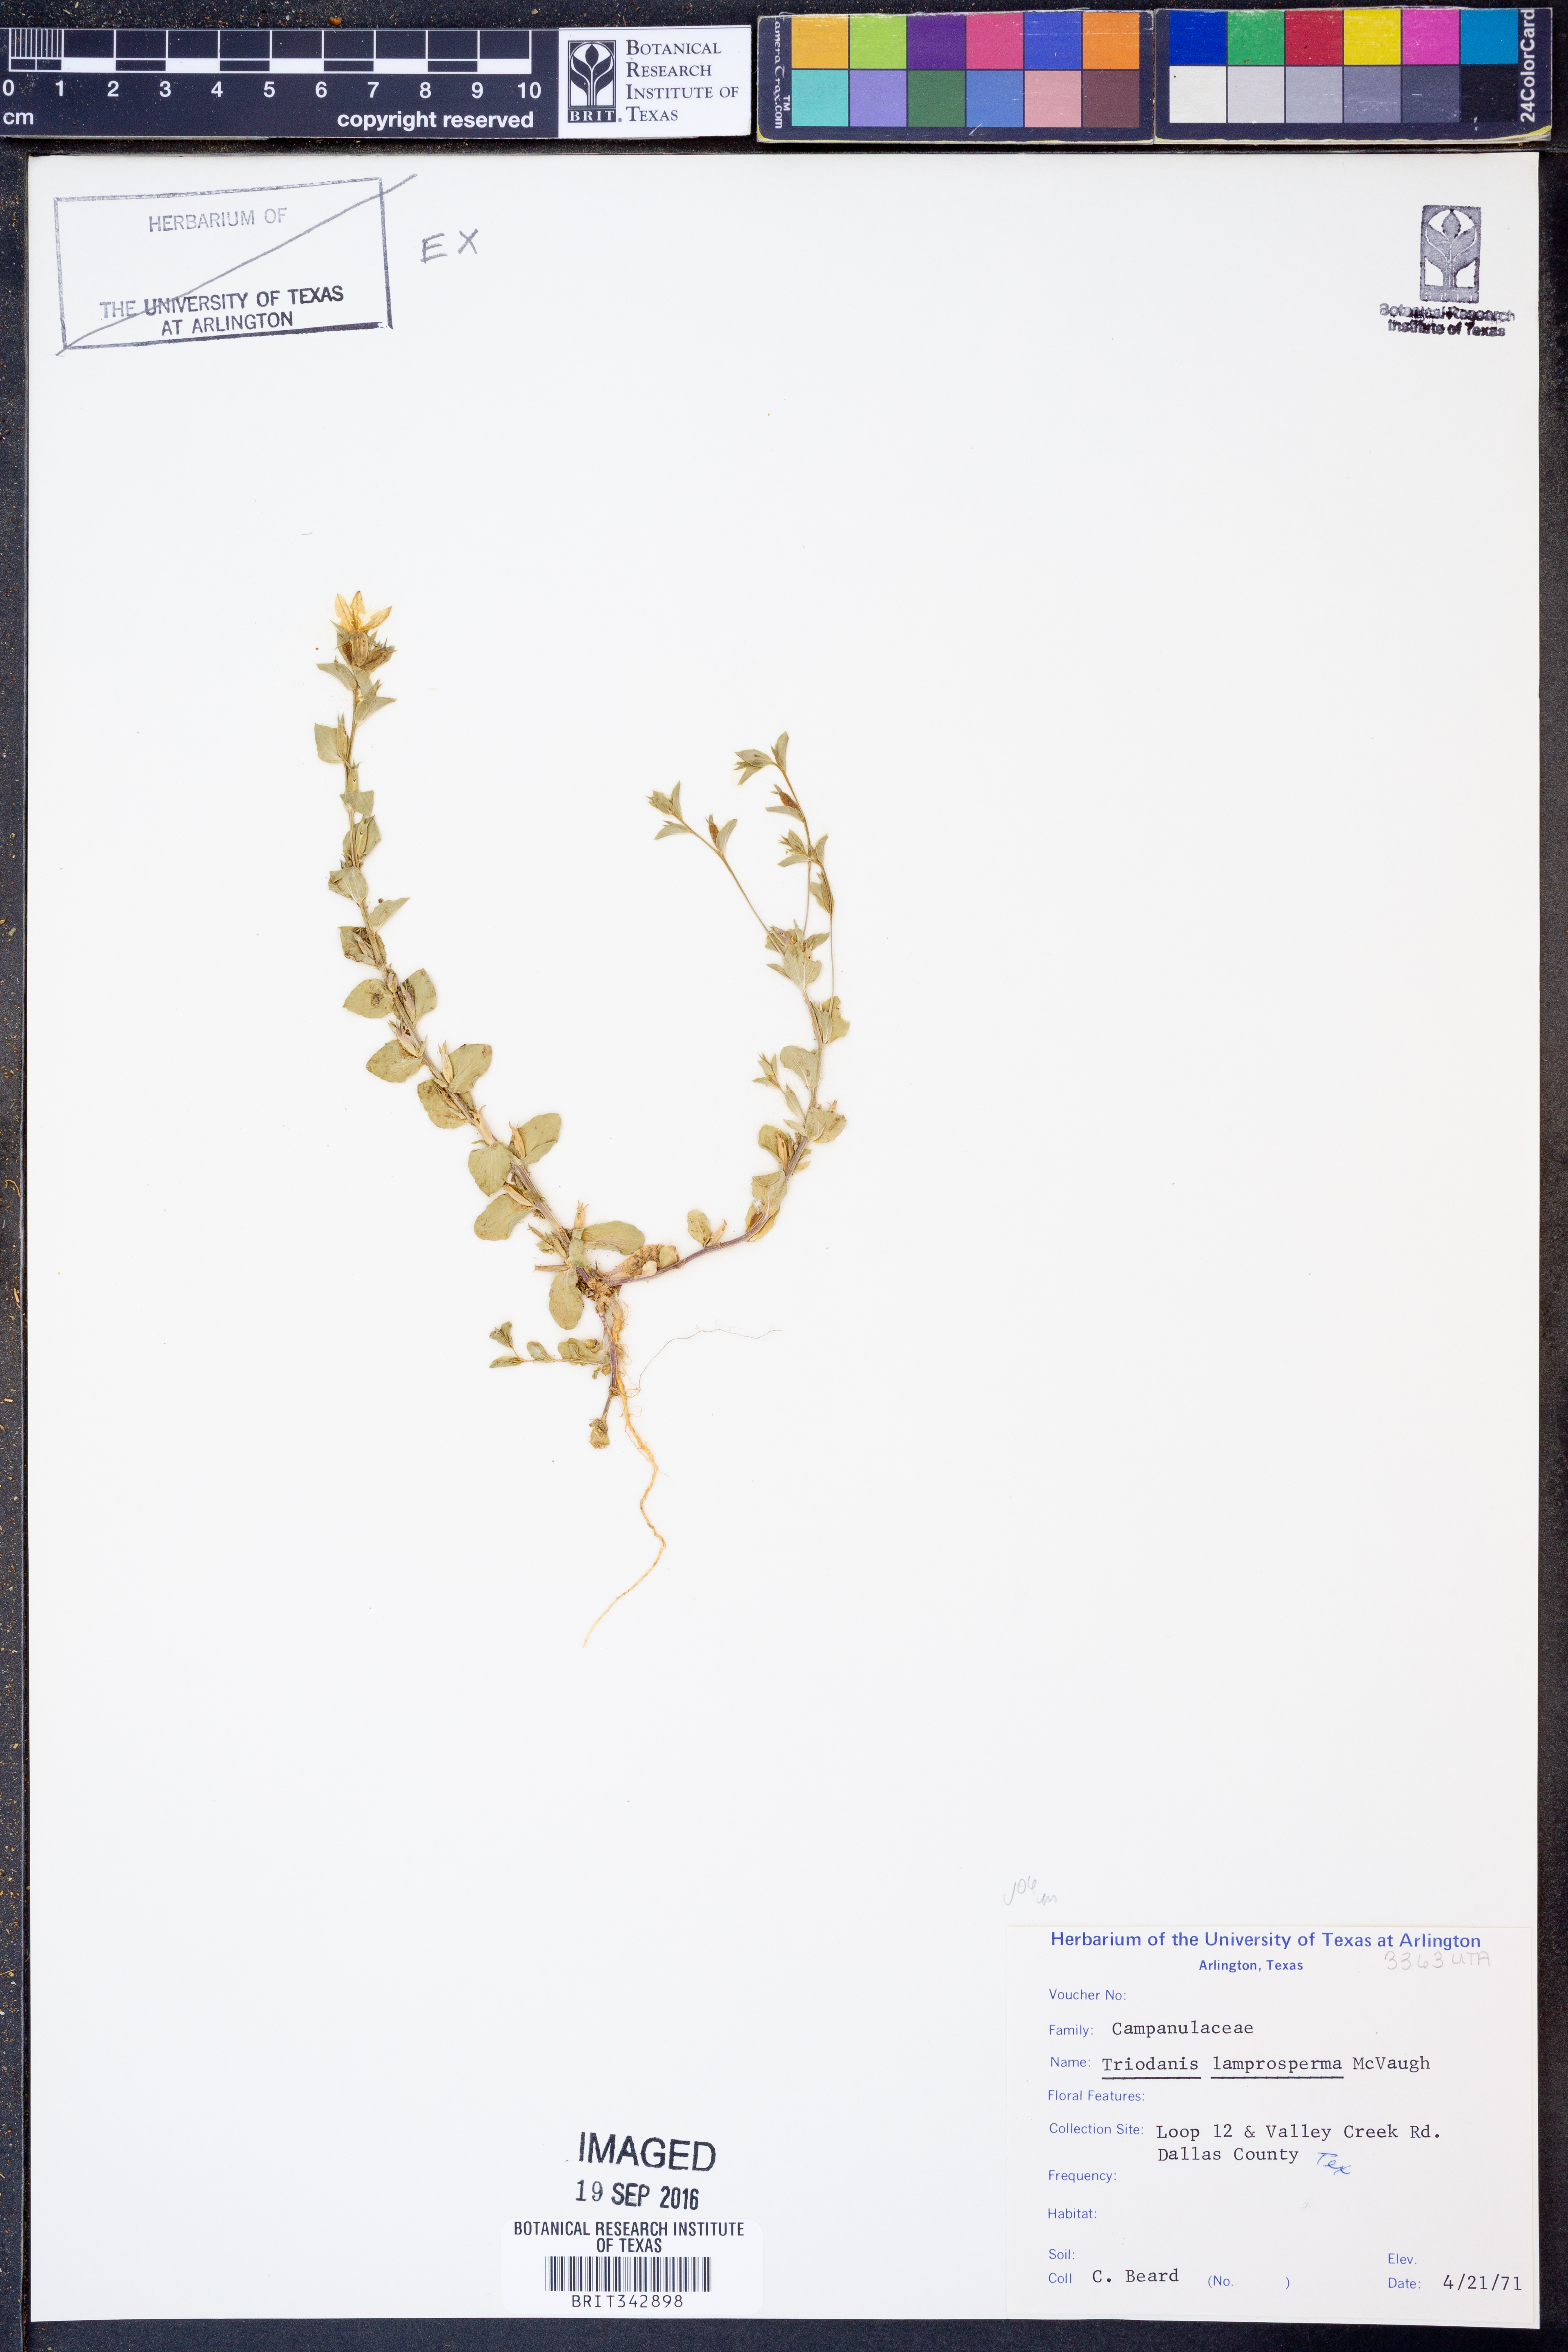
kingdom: Plantae
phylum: Tracheophyta
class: Magnoliopsida
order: Asterales
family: Campanulaceae
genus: Triodanis
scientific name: Triodanis lamprosperma
